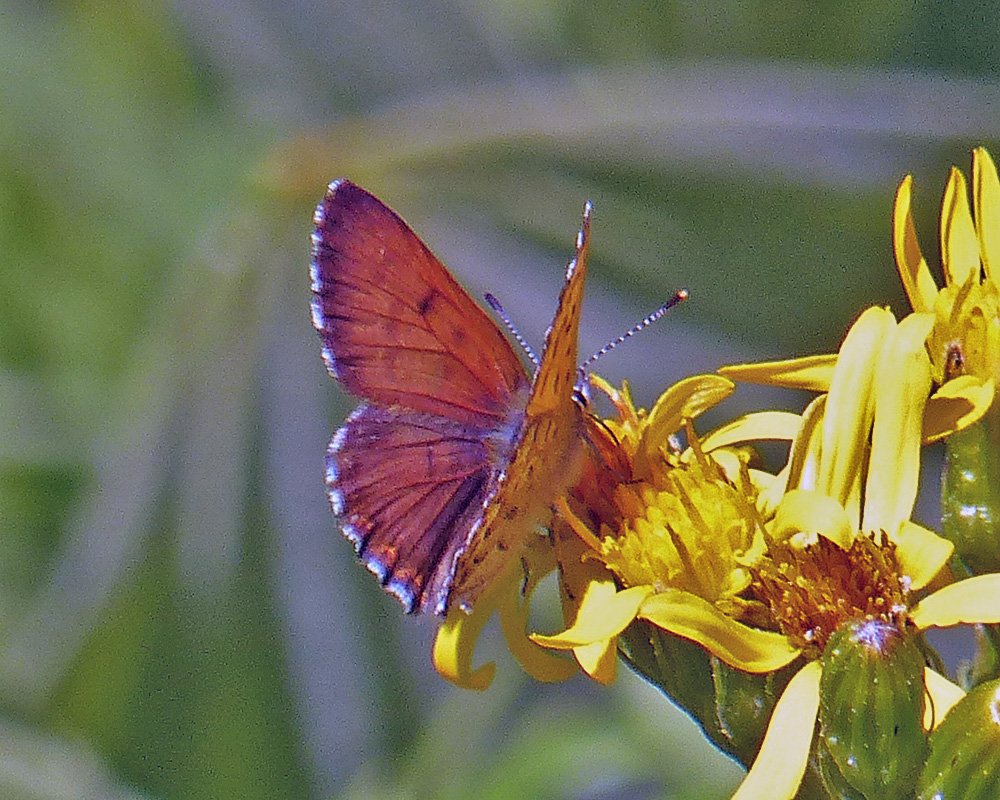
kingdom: Animalia
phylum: Arthropoda
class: Insecta
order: Lepidoptera
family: Lycaenidae
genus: Lycaena
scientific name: Lycaena mariposa
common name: Mariposa Copper
